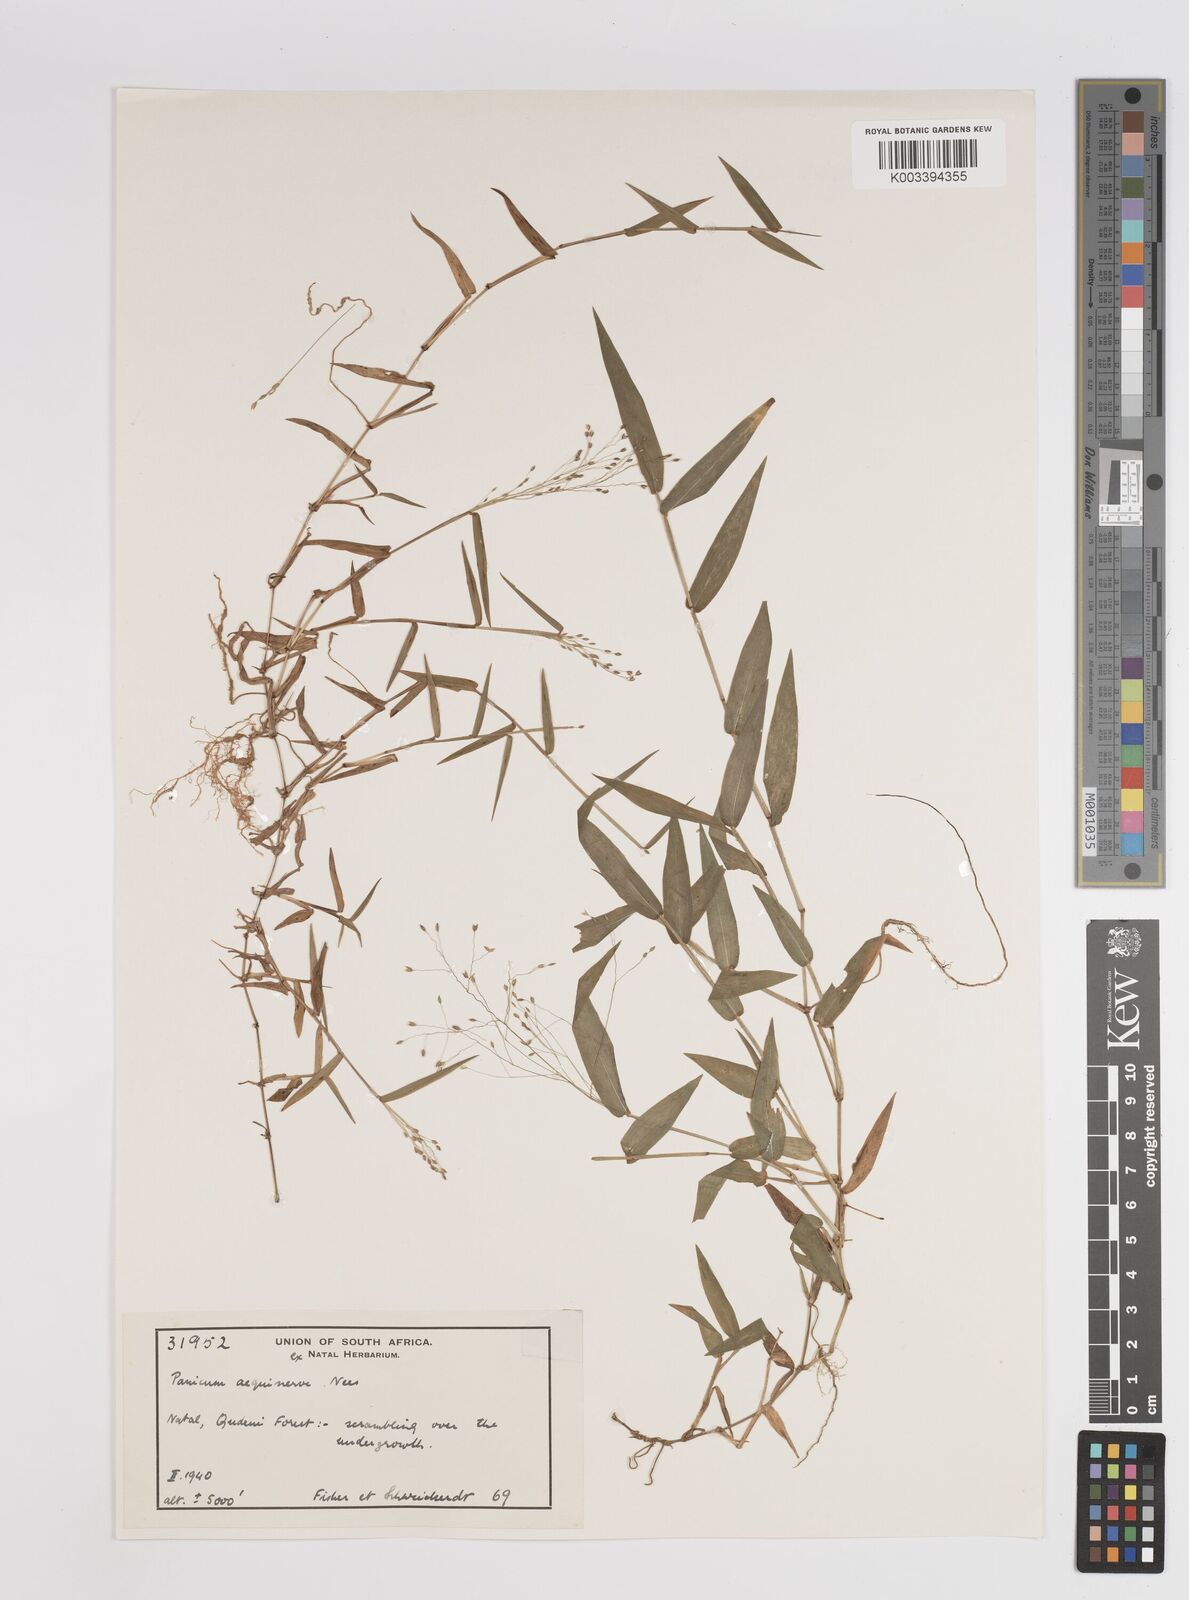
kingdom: Plantae
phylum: Tracheophyta
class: Liliopsida
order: Poales
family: Poaceae
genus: Panicum
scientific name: Panicum aequinerve
